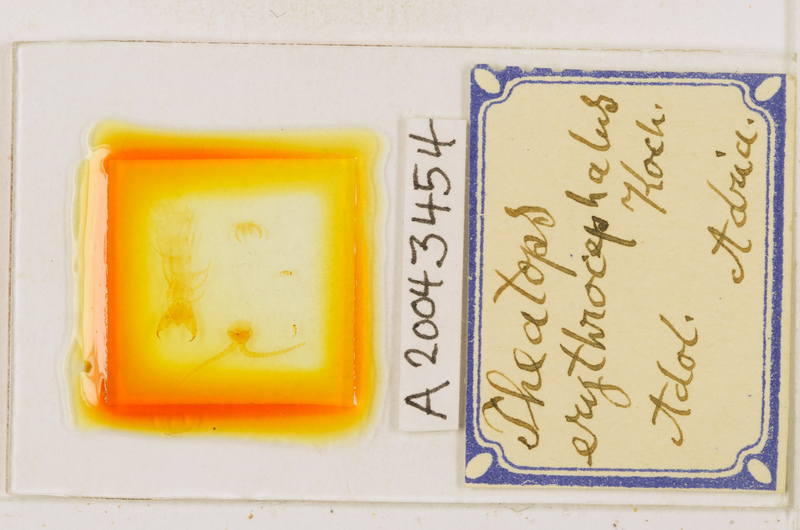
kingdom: Animalia
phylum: Arthropoda
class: Chilopoda
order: Scolopendromorpha
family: Cryptopidae
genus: Theatops
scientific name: Theatops erythrocephalus
